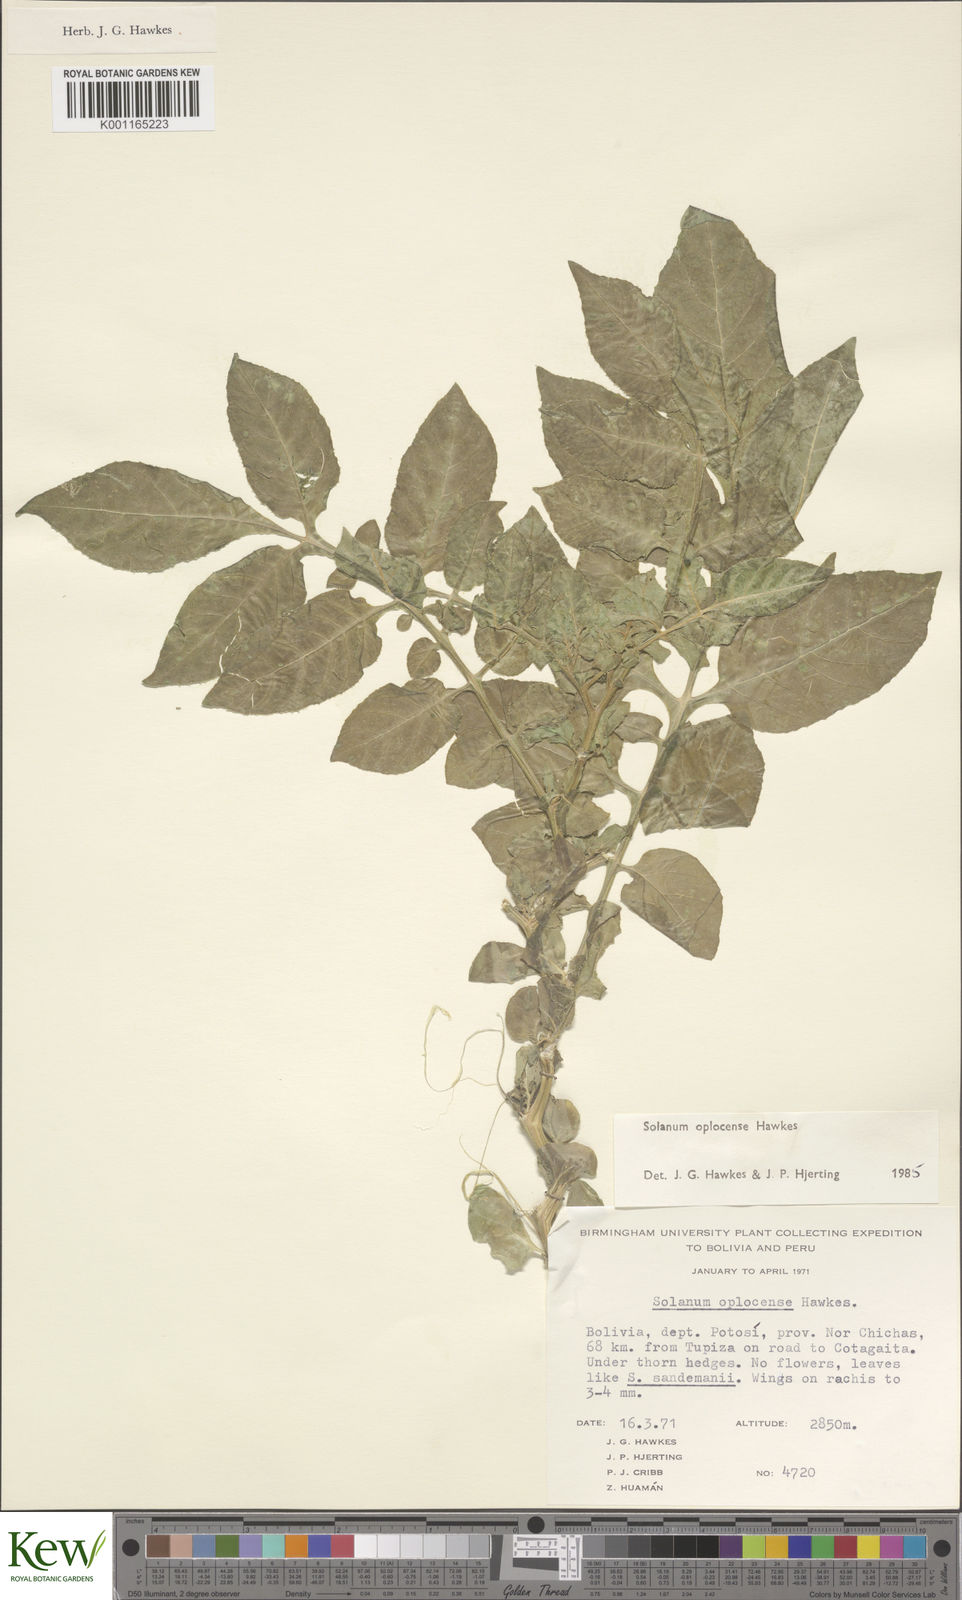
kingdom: Plantae
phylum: Tracheophyta
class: Magnoliopsida
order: Solanales
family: Solanaceae
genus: Solanum
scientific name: Solanum brevicaule
